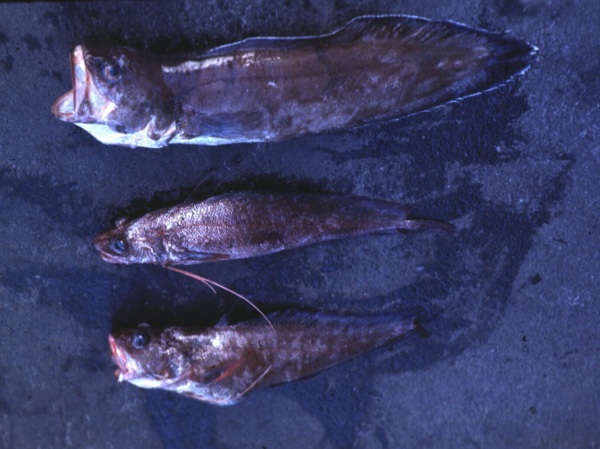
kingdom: Animalia
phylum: Chordata
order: Ophidiiformes
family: Ophidiidae
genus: Monomitopus
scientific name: Monomitopus conjugator
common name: Indian cusk
